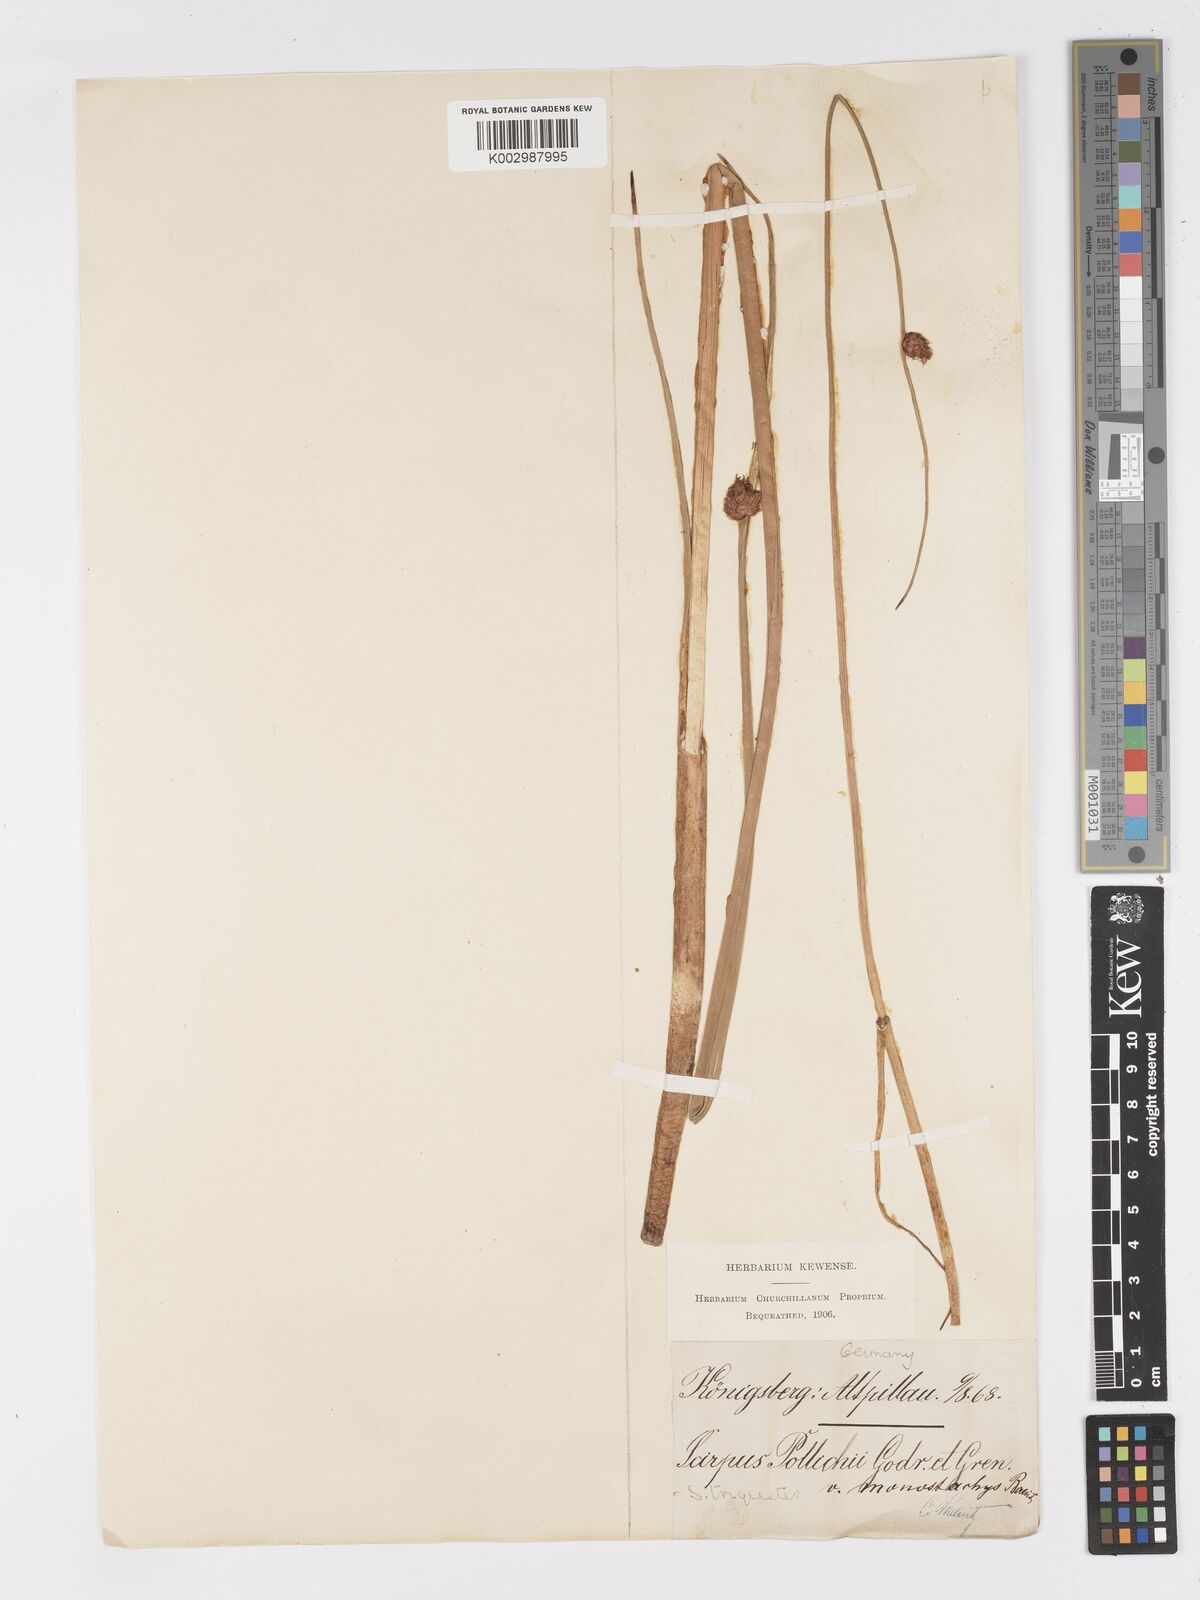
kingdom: Plantae
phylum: Tracheophyta
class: Liliopsida
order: Poales
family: Cyperaceae
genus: Schoenoplectus
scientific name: Schoenoplectus triqueter
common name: Triangular club-rush
